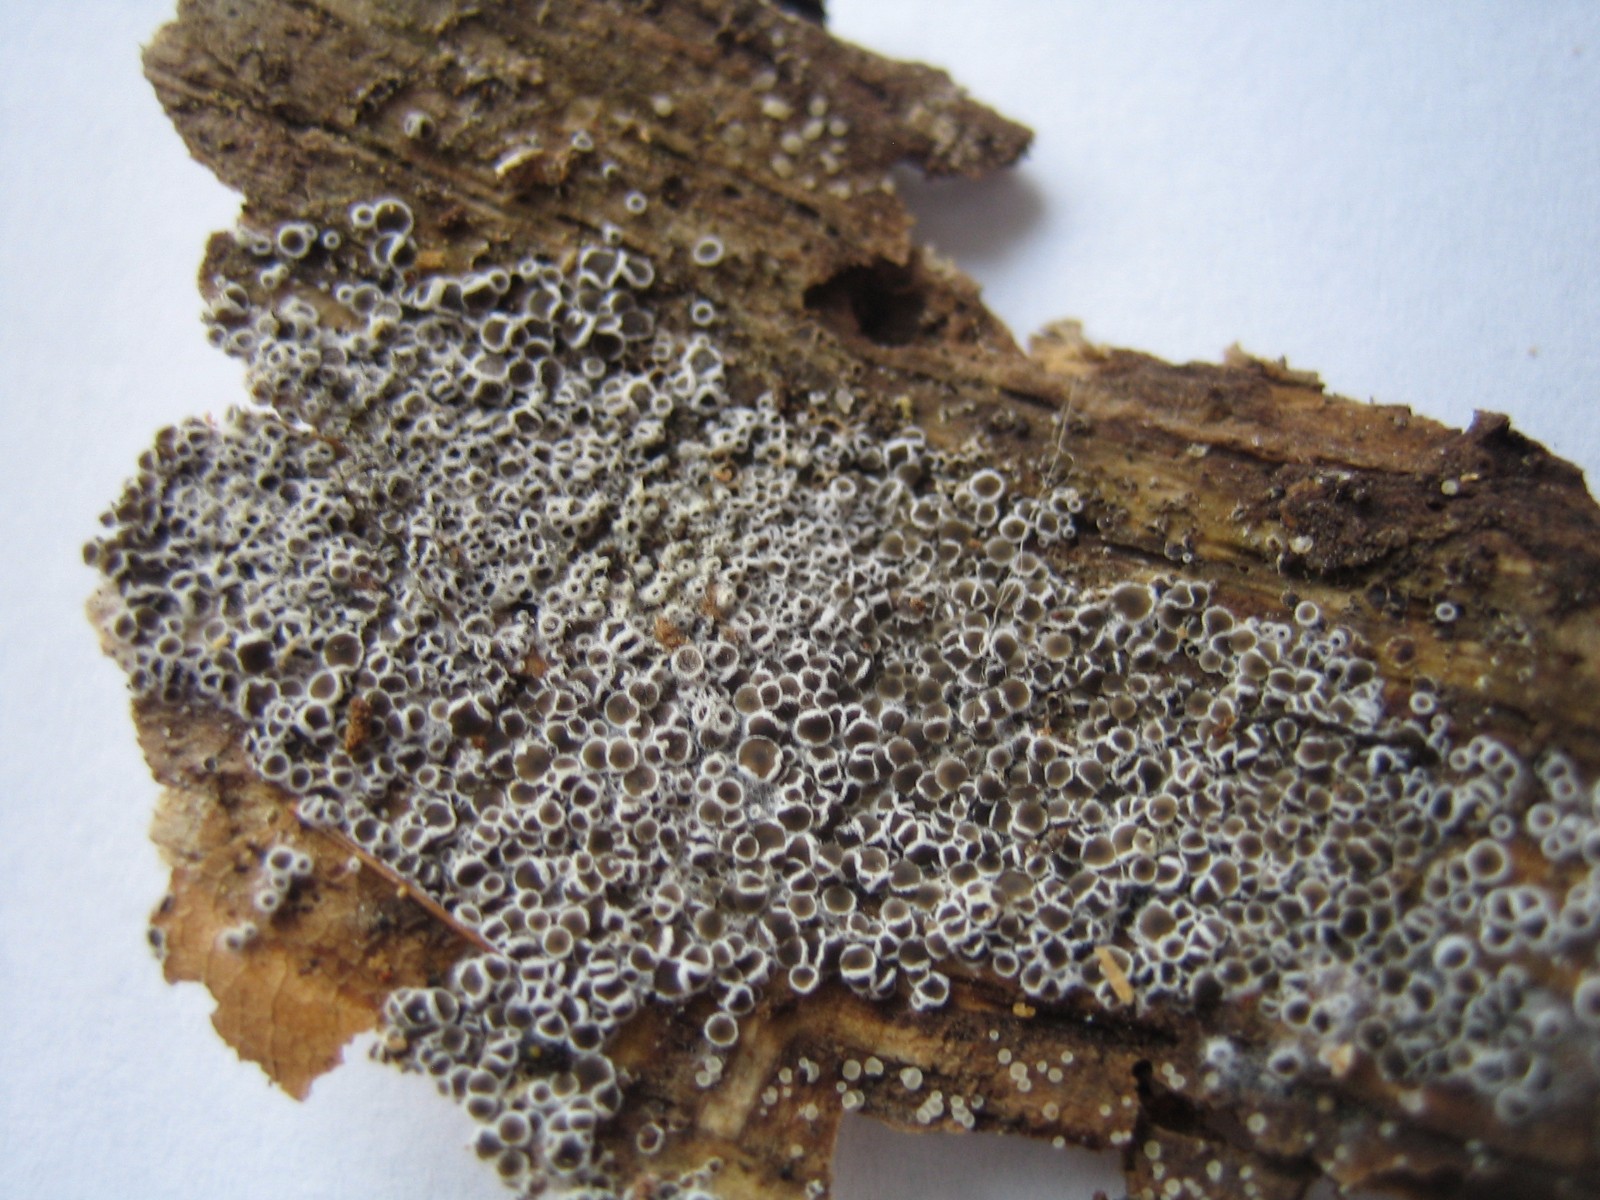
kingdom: Fungi
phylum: Ascomycota
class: Leotiomycetes
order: Helotiales
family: Arachnopezizaceae
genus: Eriopezia
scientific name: Eriopezia caesia
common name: ege-spindskive
